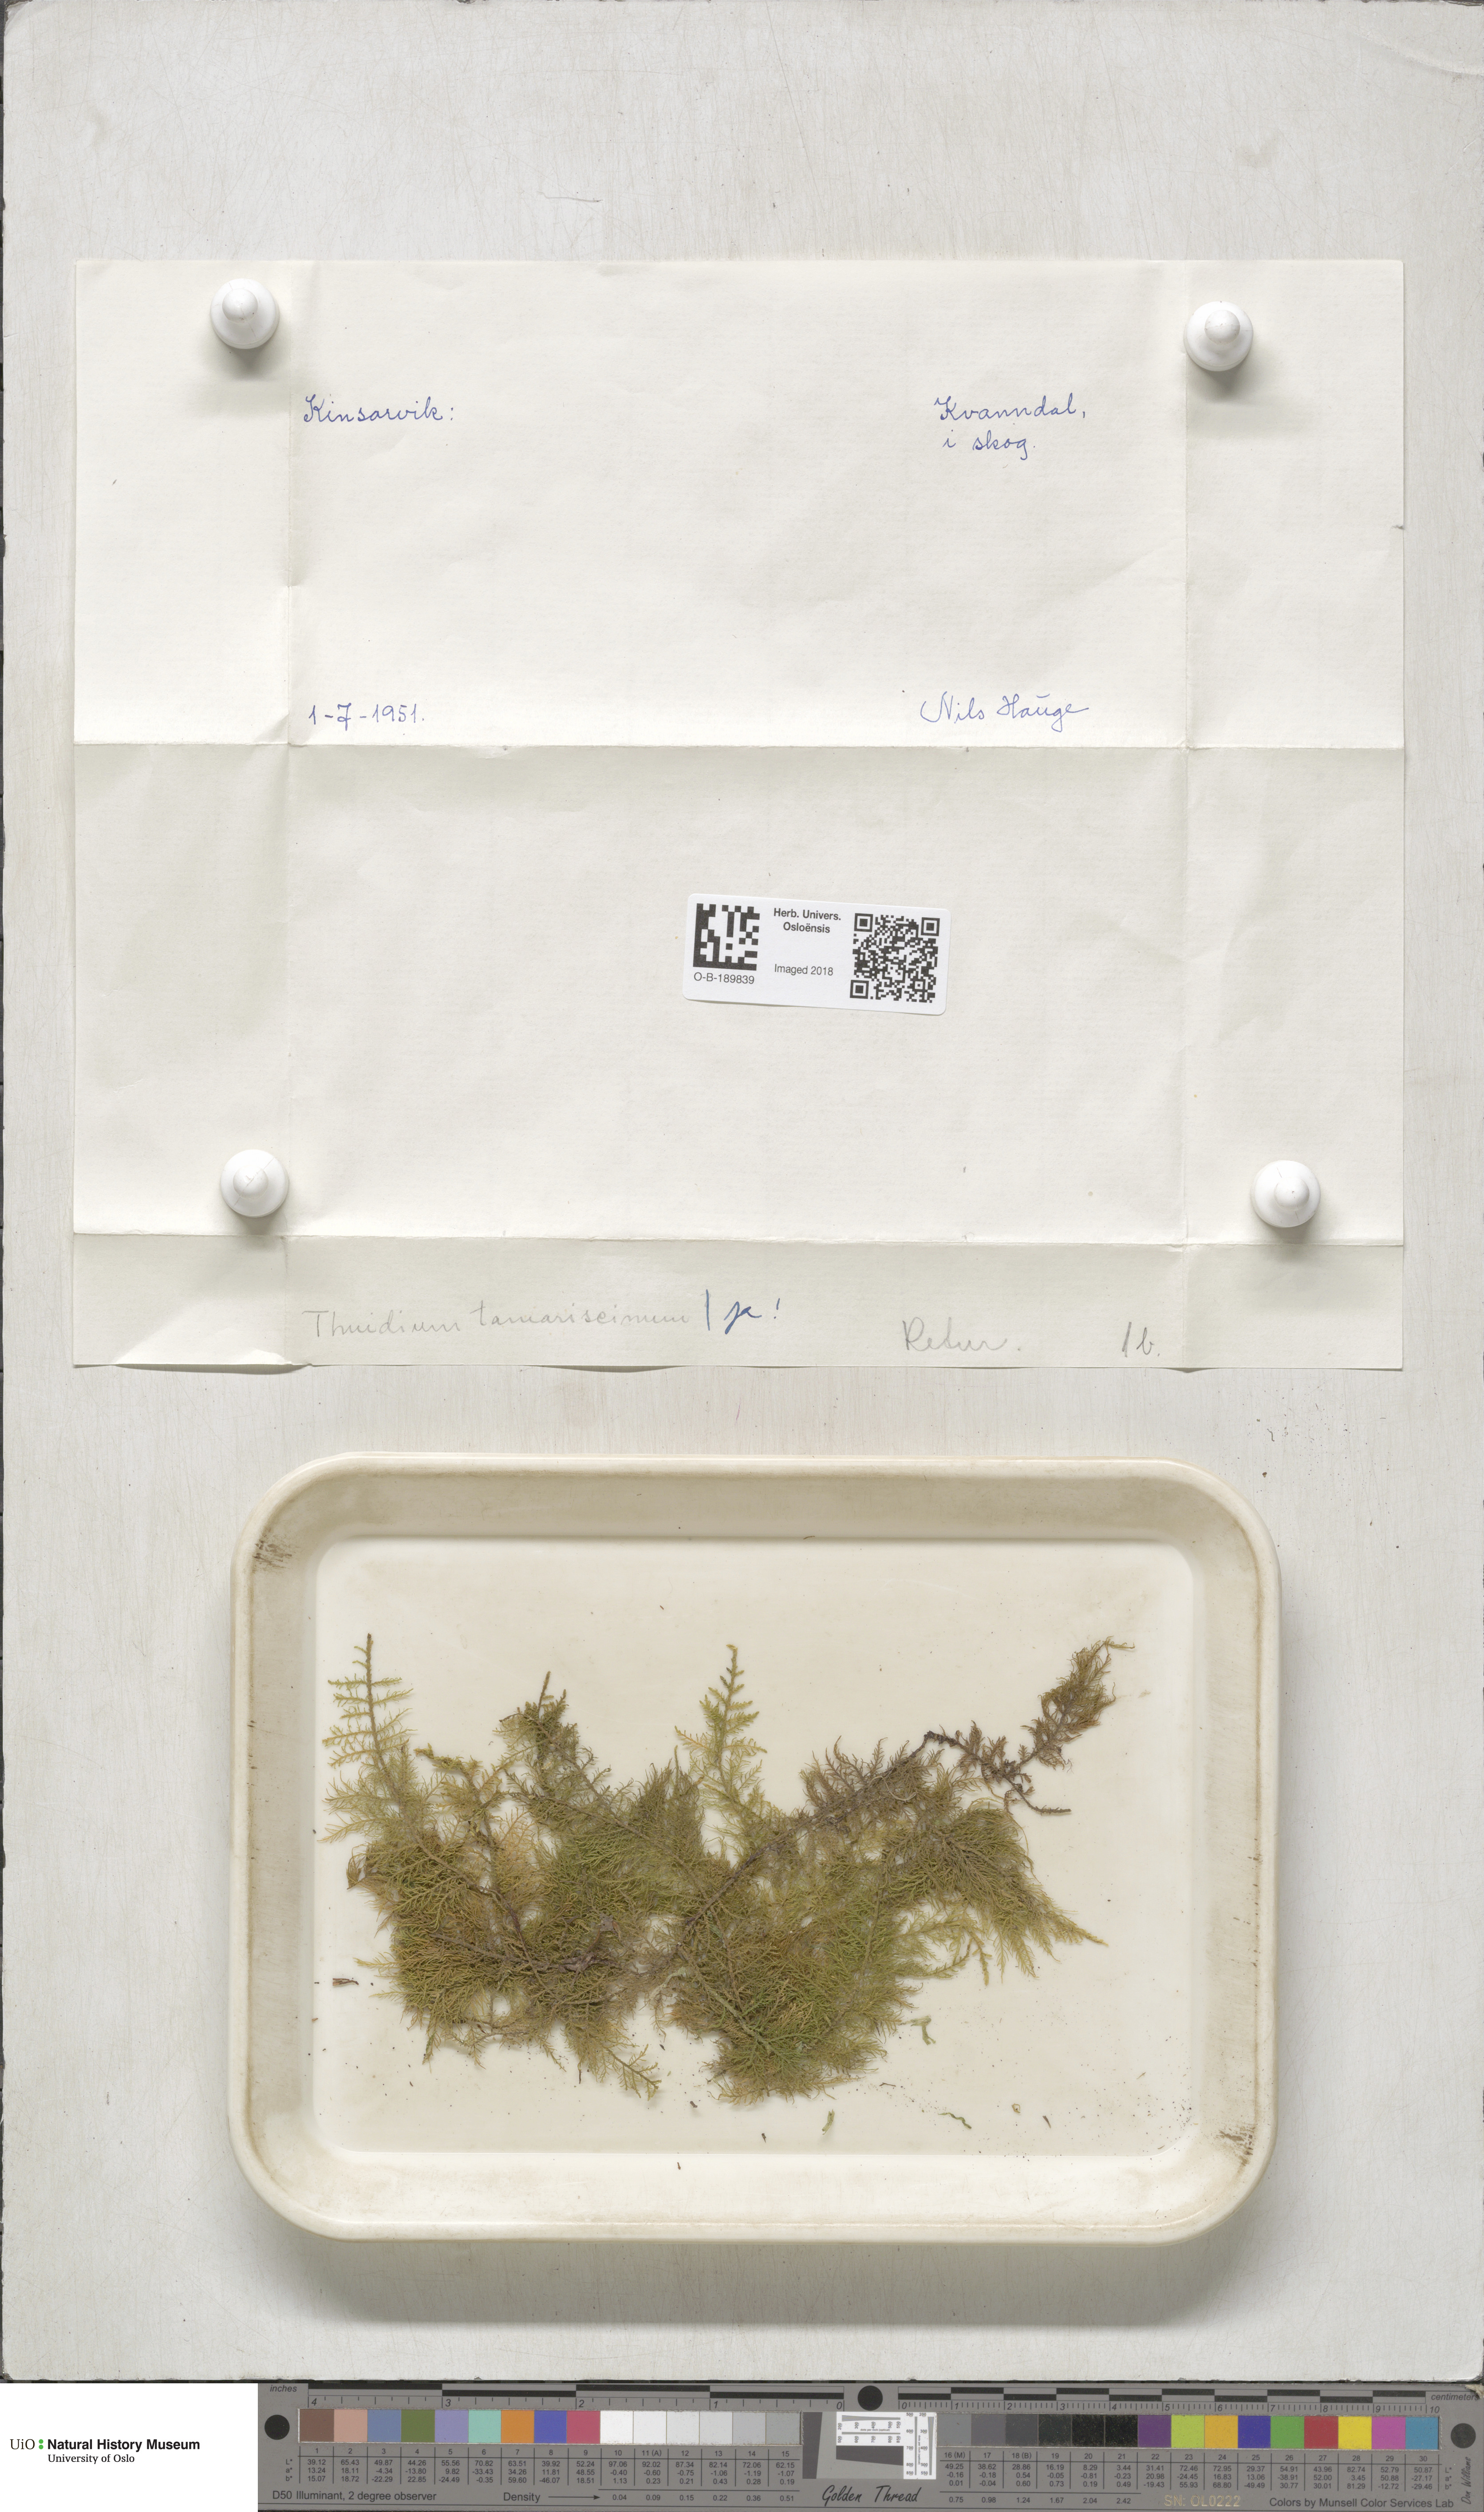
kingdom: Plantae
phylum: Bryophyta
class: Bryopsida
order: Hypnales
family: Thuidiaceae
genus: Thuidium
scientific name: Thuidium tamariscinum
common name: Common tamarisk-moss
